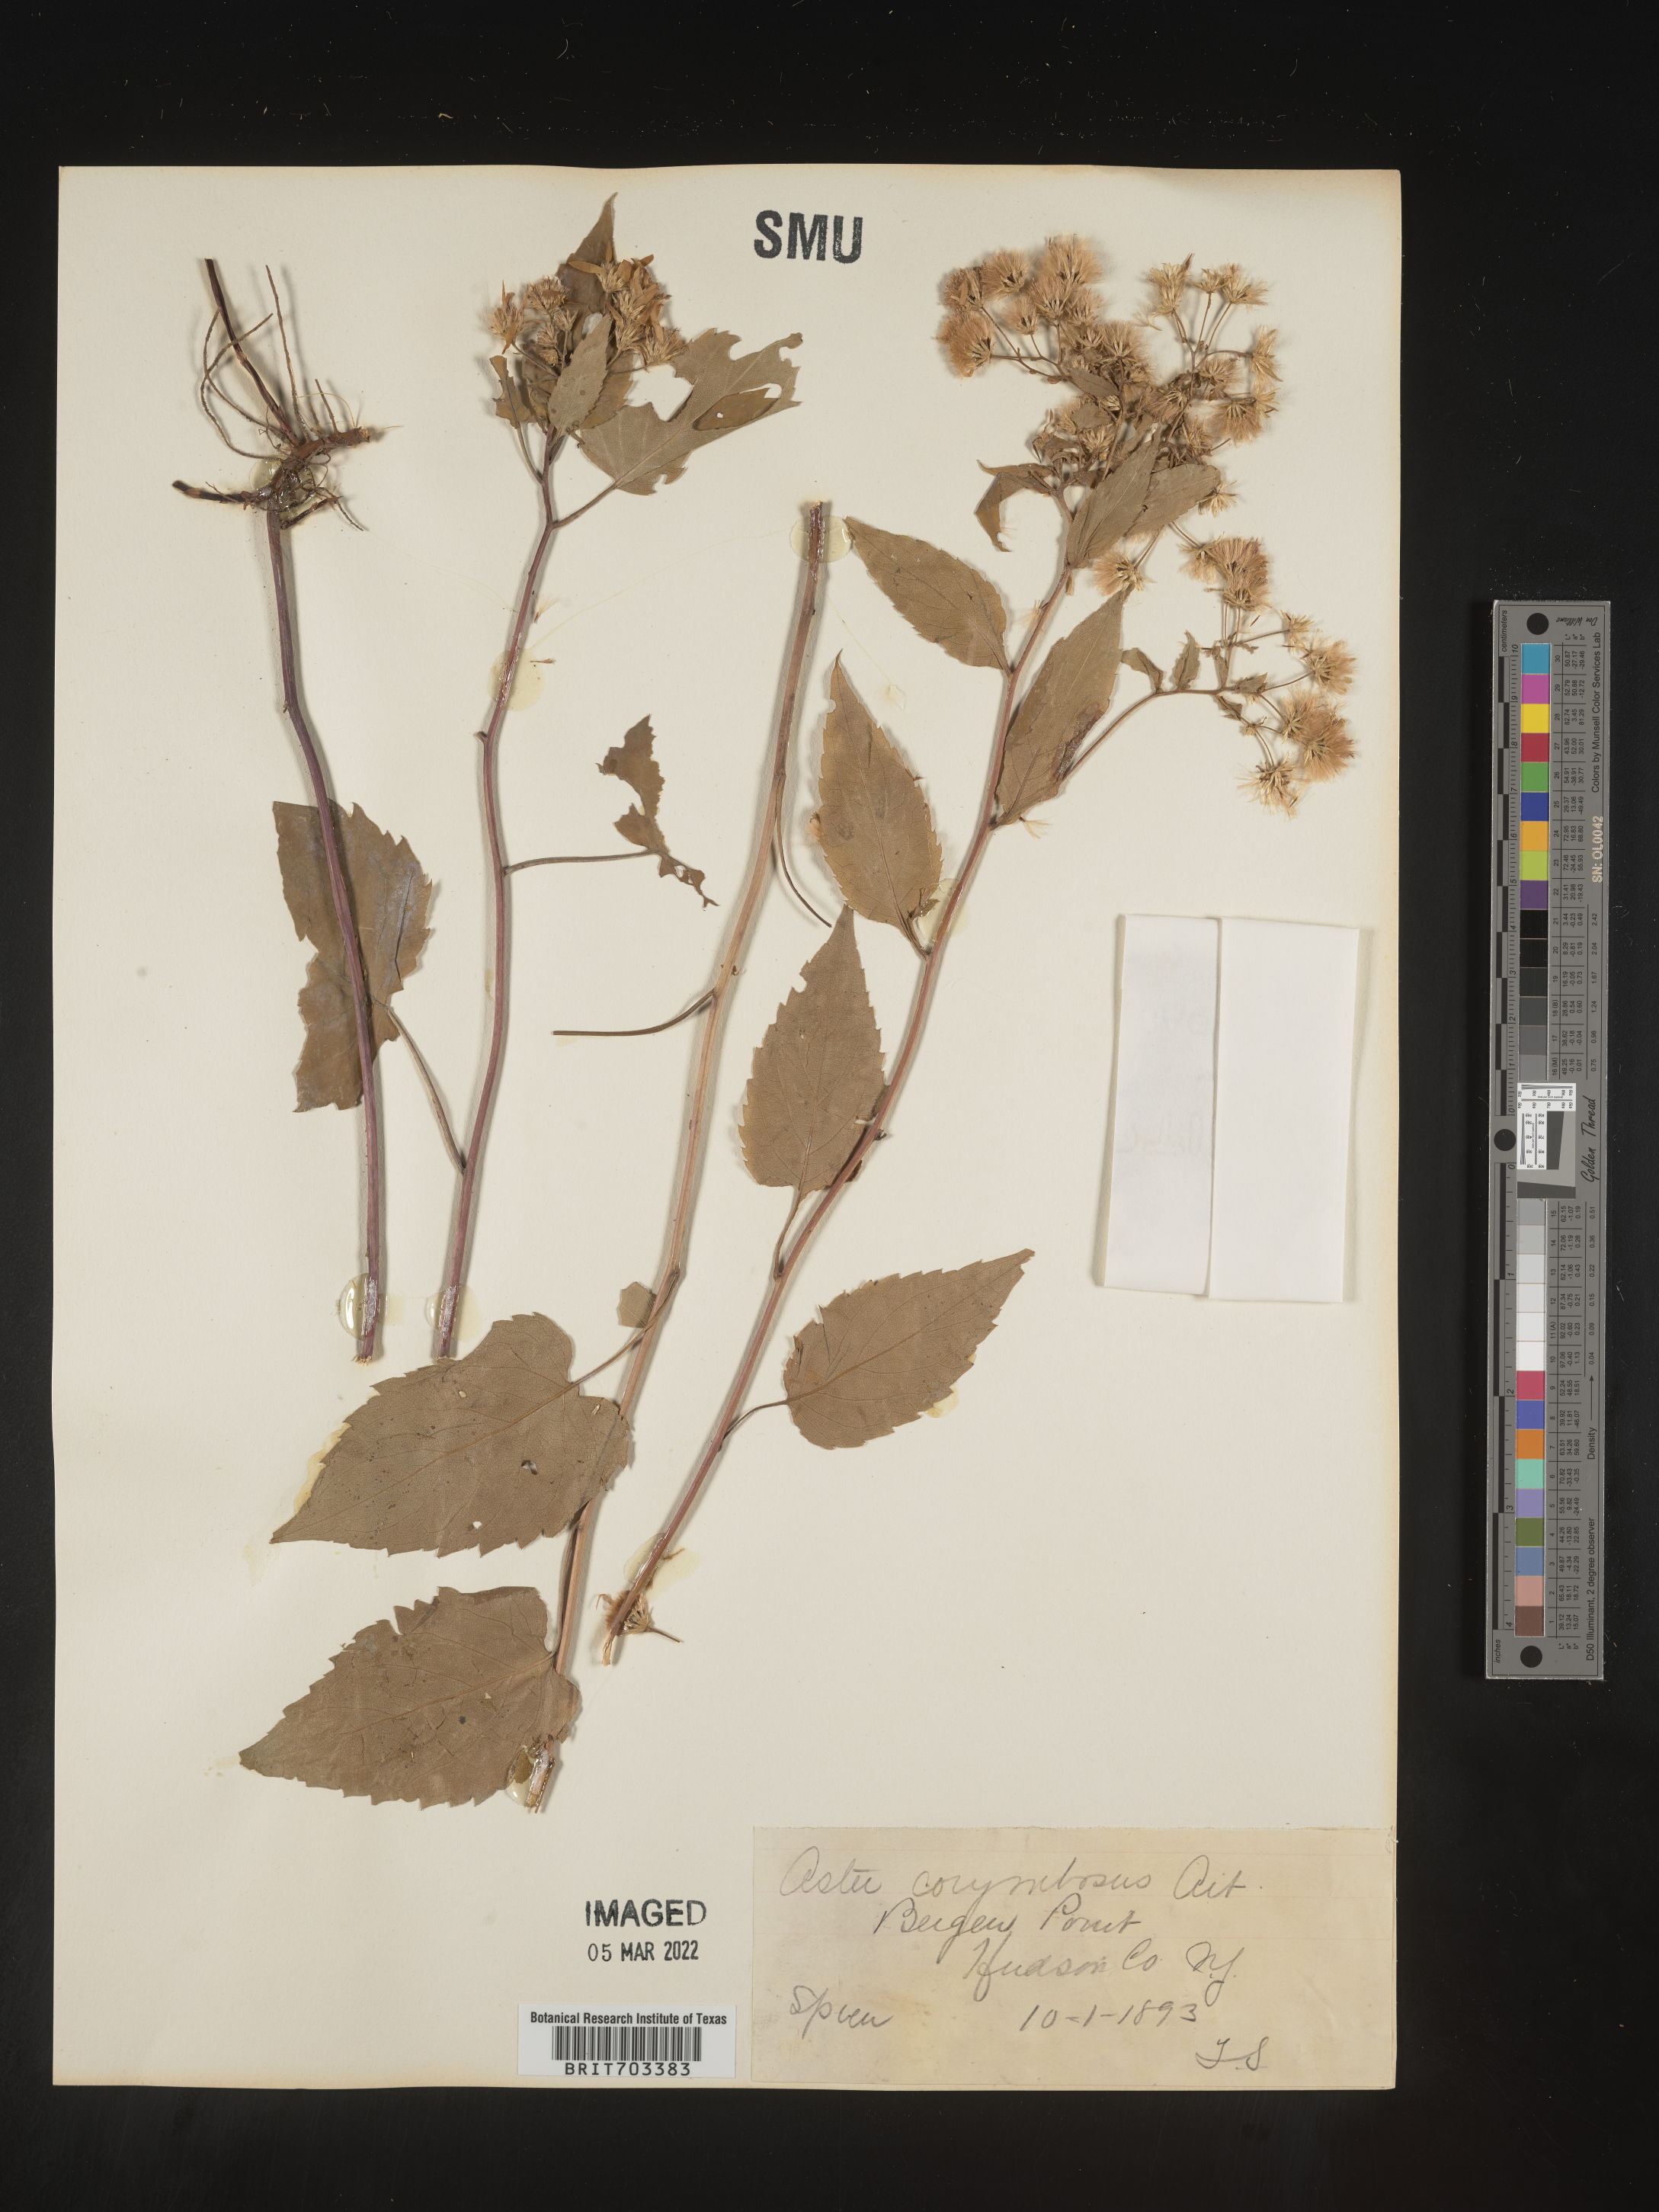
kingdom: Plantae
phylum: Tracheophyta
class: Magnoliopsida
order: Asterales
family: Asteraceae
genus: Eurybia
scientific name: Eurybia divaricata
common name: White wood aster
